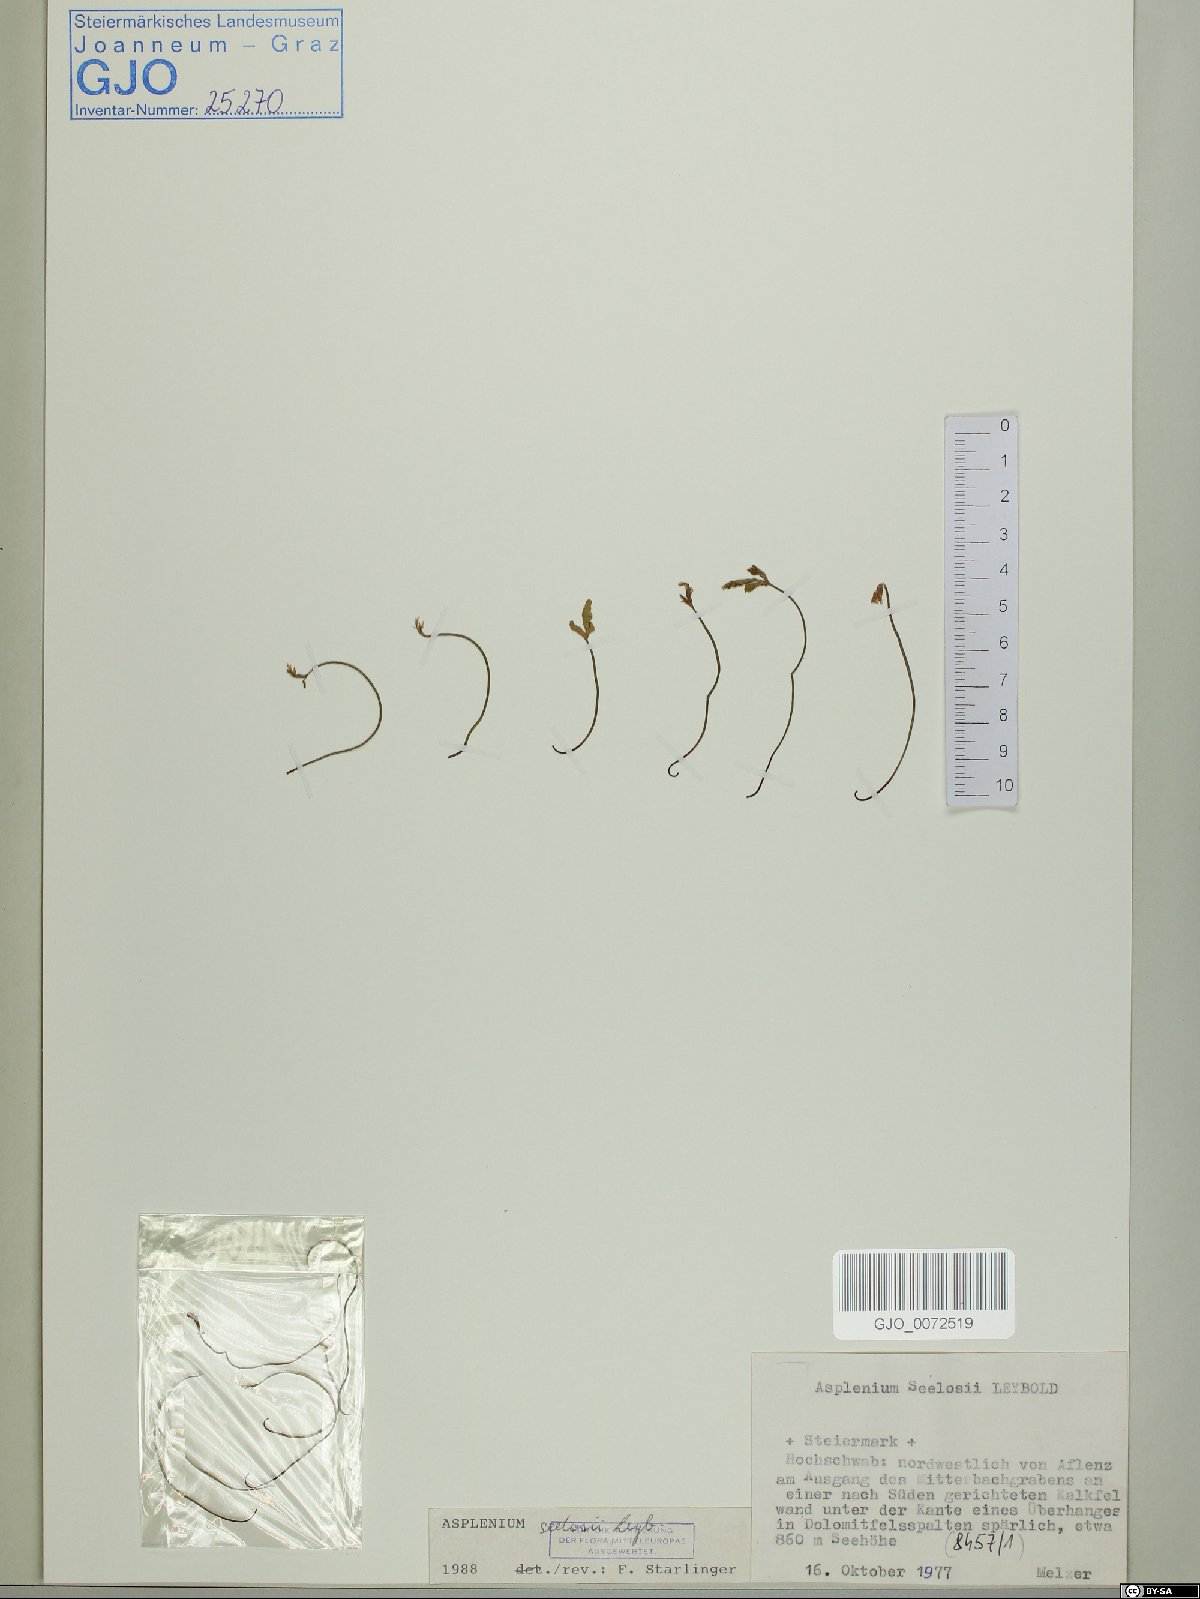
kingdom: Plantae
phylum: Tracheophyta
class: Polypodiopsida
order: Polypodiales
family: Aspleniaceae
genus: Asplenium
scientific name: Asplenium seelosii
